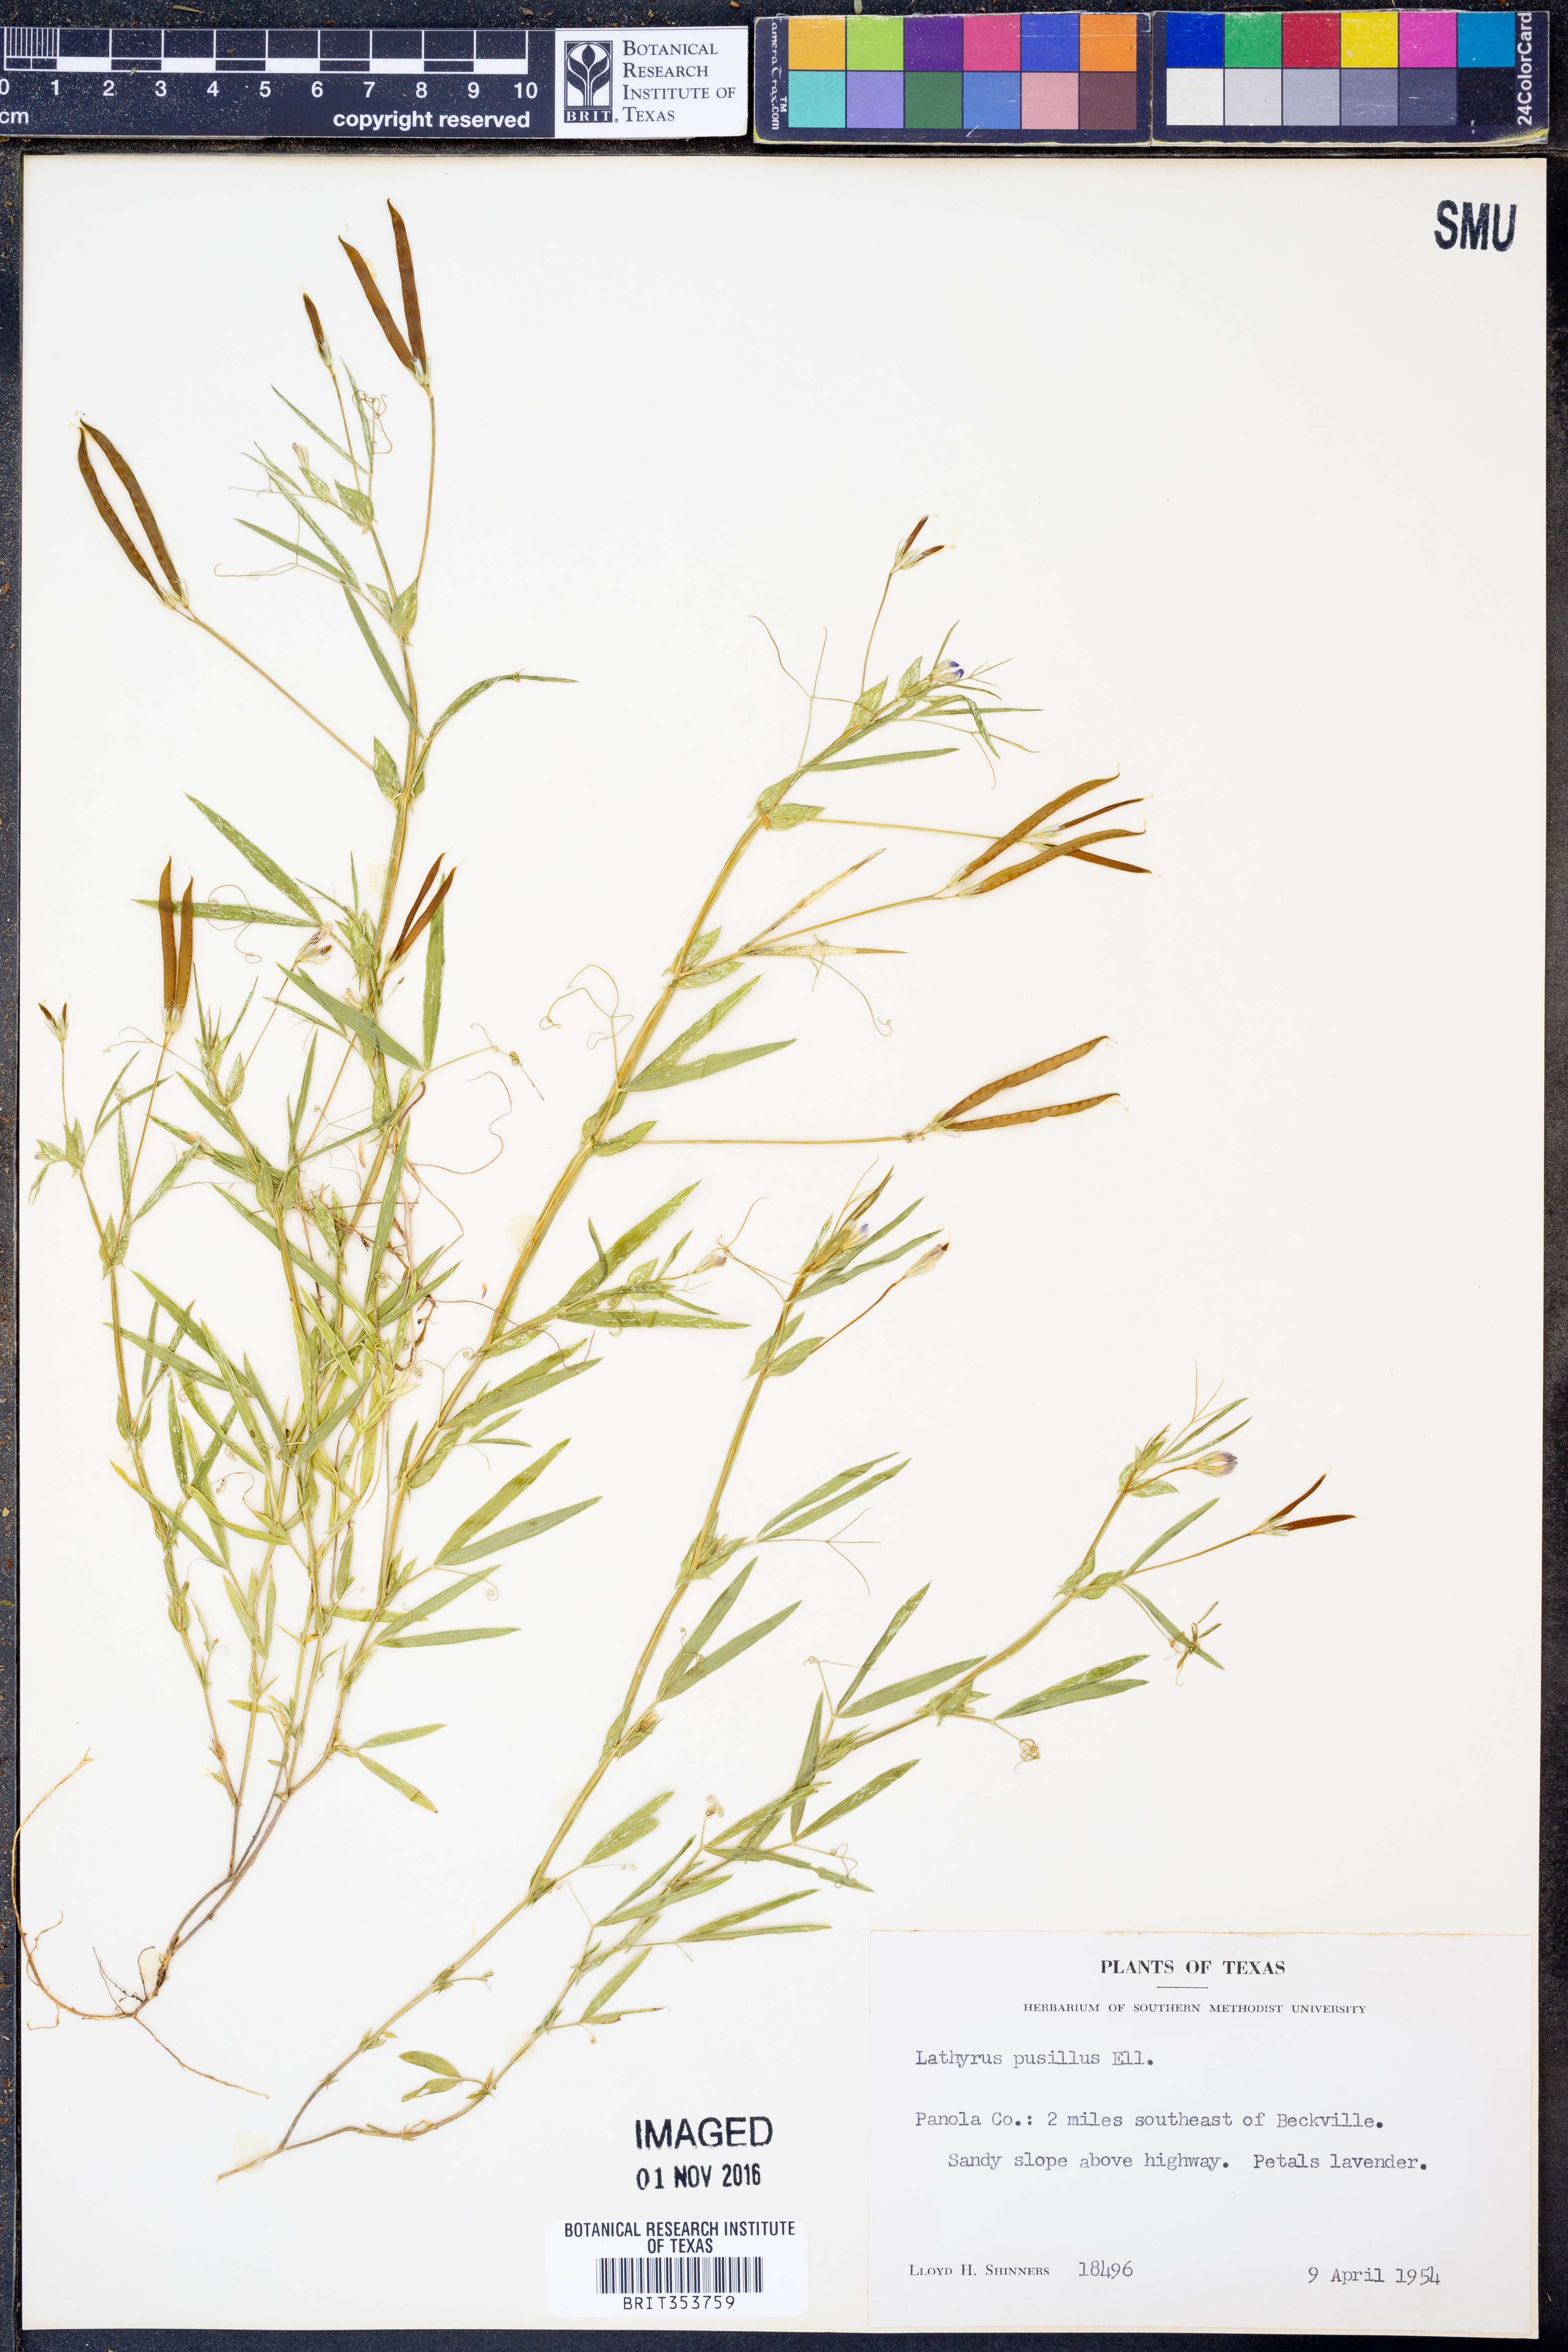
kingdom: Plantae
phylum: Tracheophyta
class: Magnoliopsida
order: Fabales
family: Fabaceae
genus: Lathyrus
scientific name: Lathyrus pusillus
